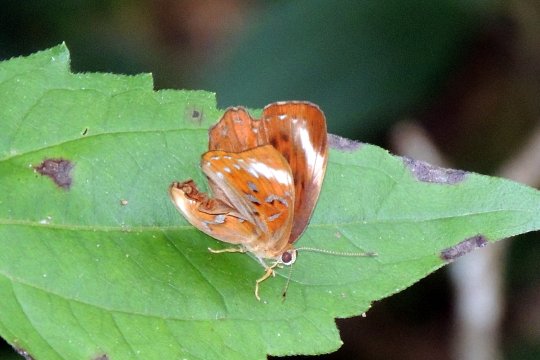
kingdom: Animalia
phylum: Arthropoda
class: Insecta
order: Lepidoptera
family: Erebidae
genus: Dysschema
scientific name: Dysschema
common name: Harlequin
